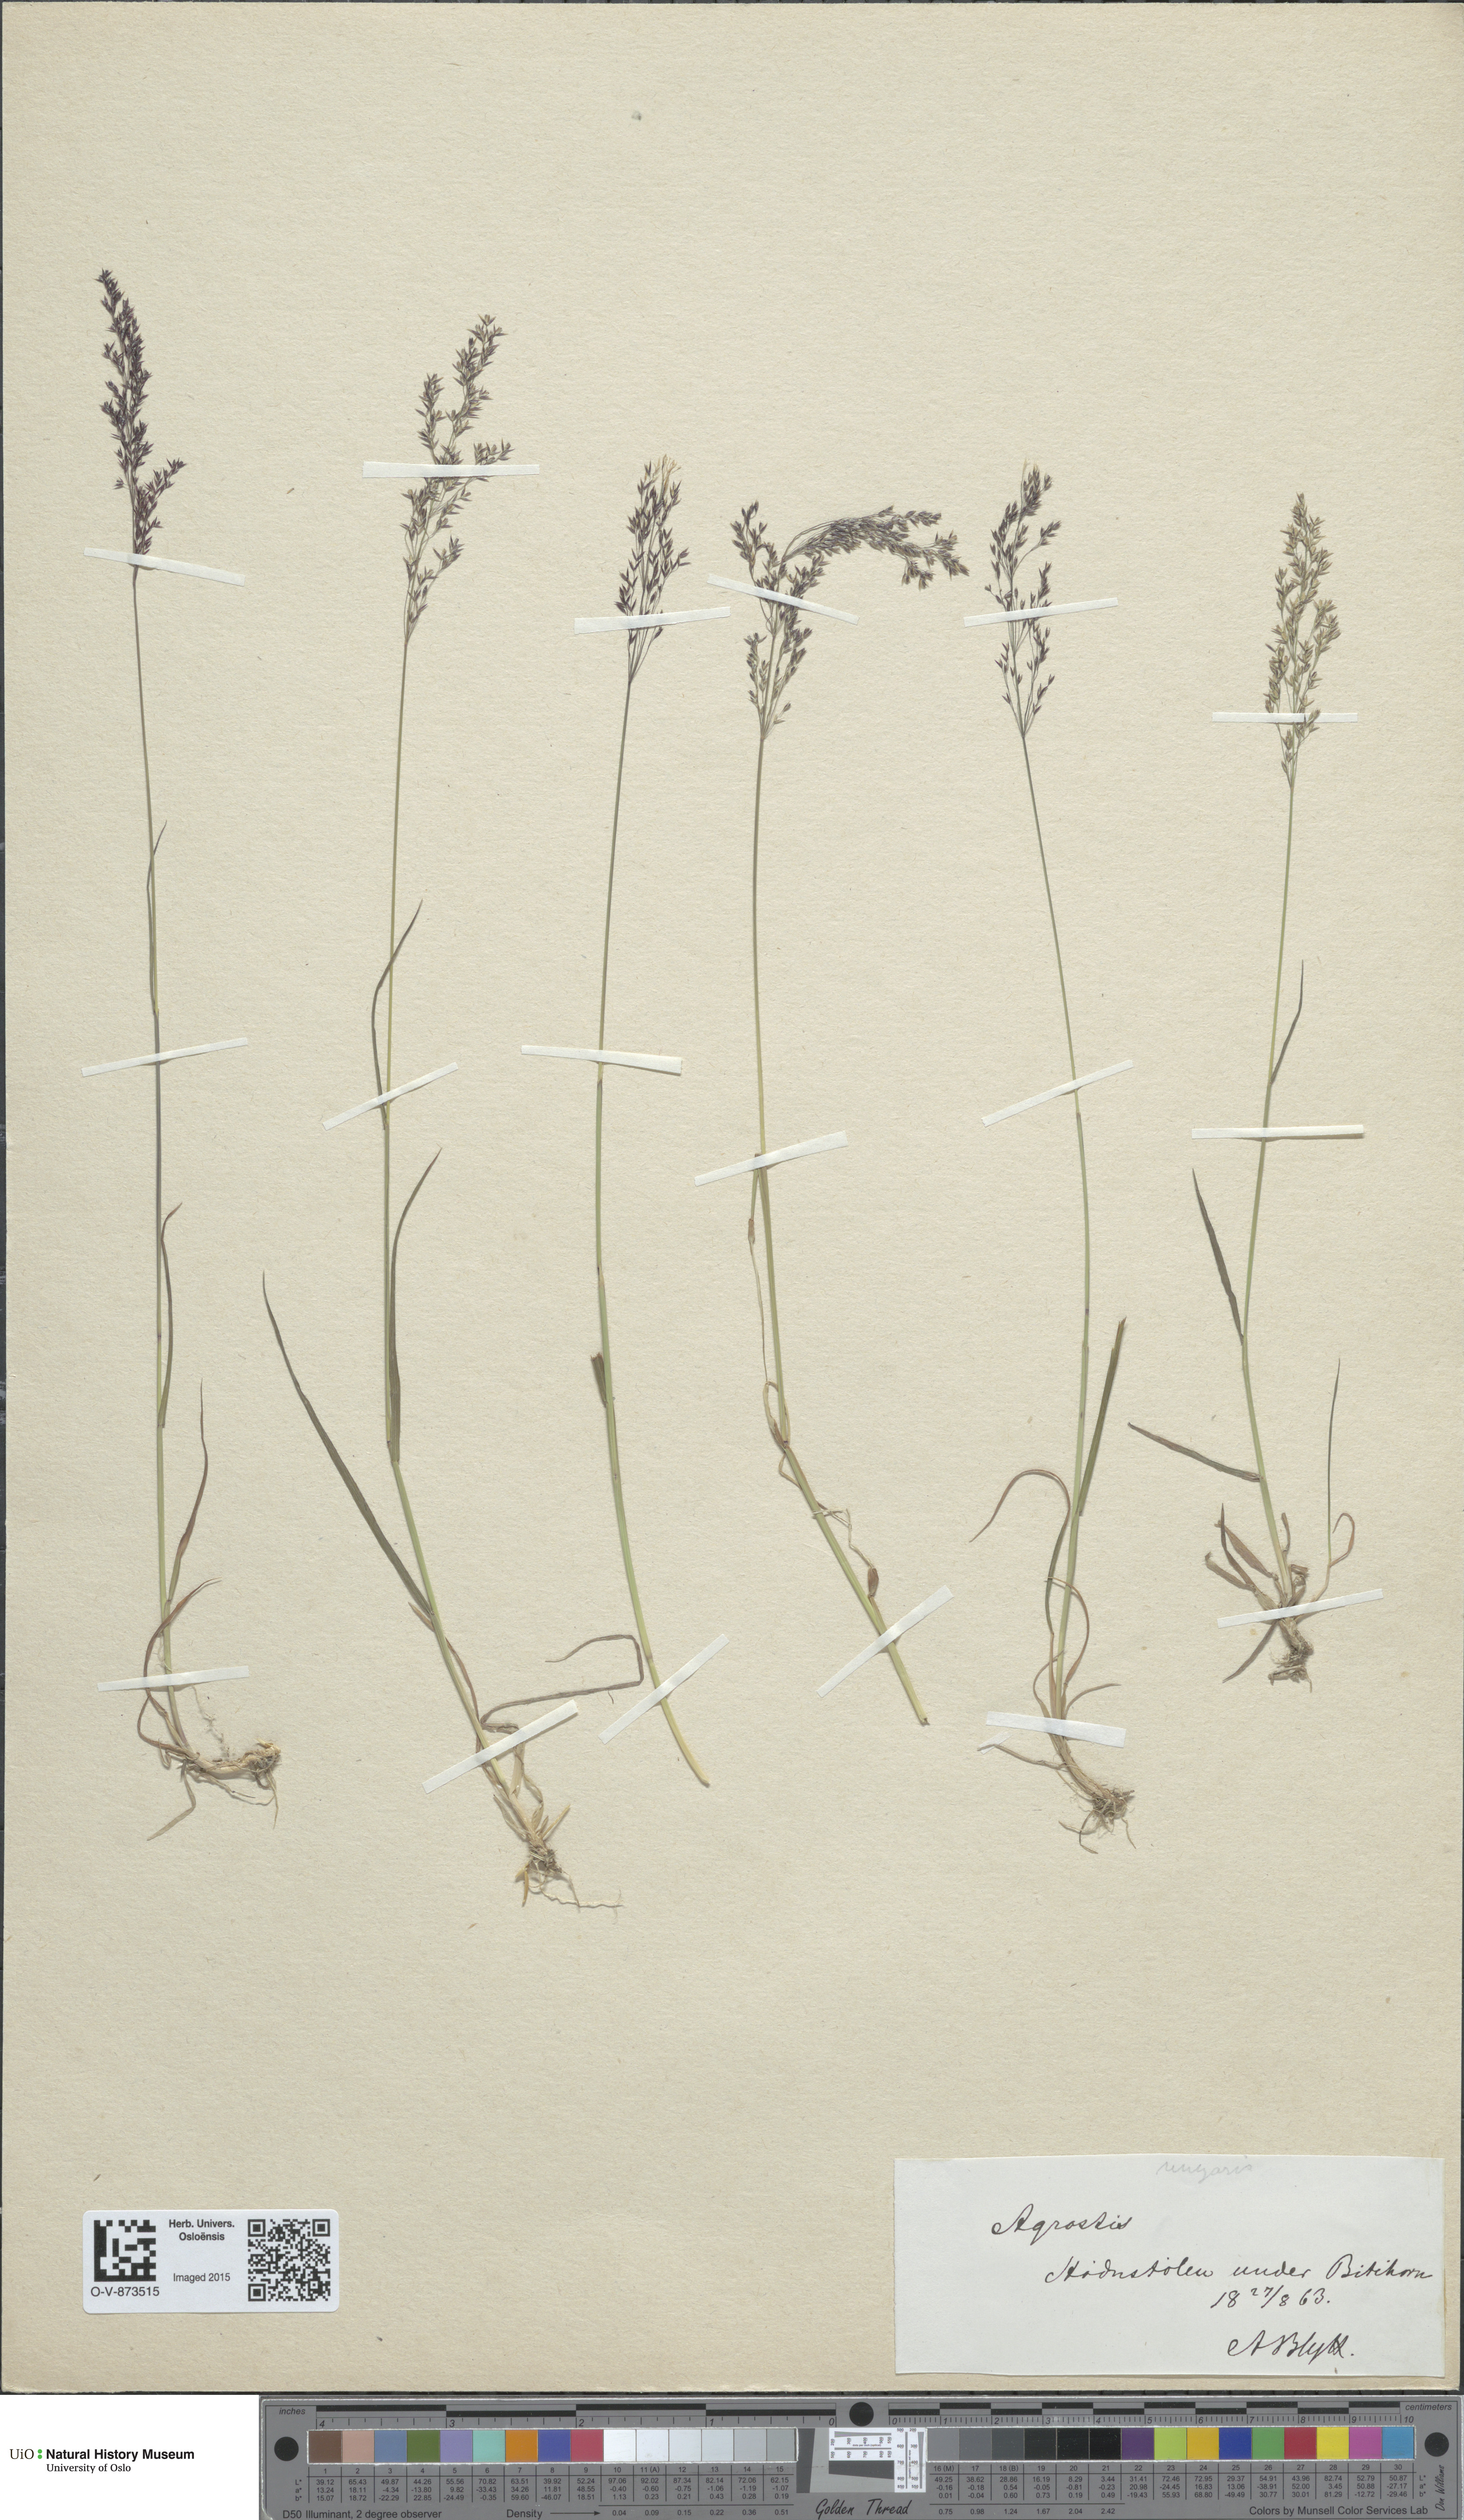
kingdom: Plantae
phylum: Tracheophyta
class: Liliopsida
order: Poales
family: Poaceae
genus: Agrostis
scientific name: Agrostis capillaris
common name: Colonial bentgrass
